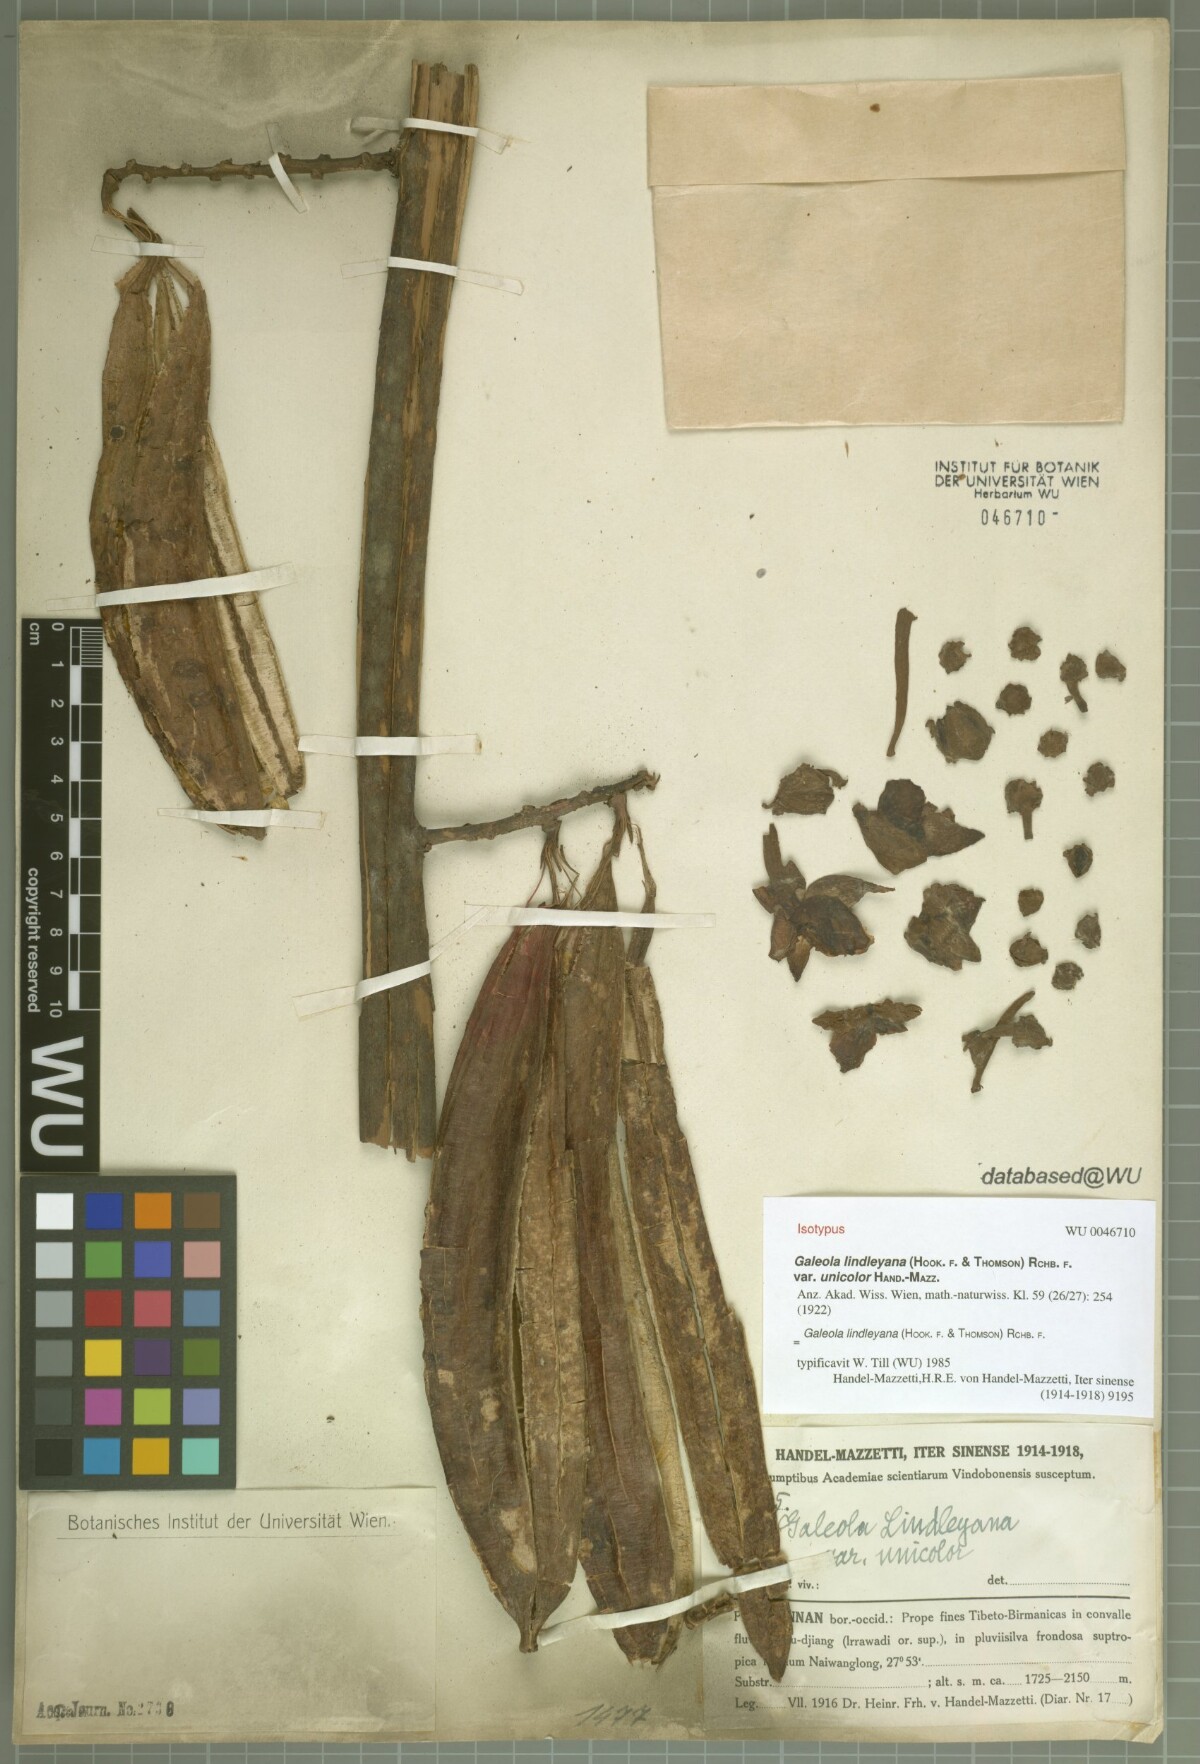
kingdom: Plantae
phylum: Tracheophyta
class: Liliopsida
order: Asparagales
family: Orchidaceae
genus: Cyrtosia
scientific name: Cyrtosia lindleyana
